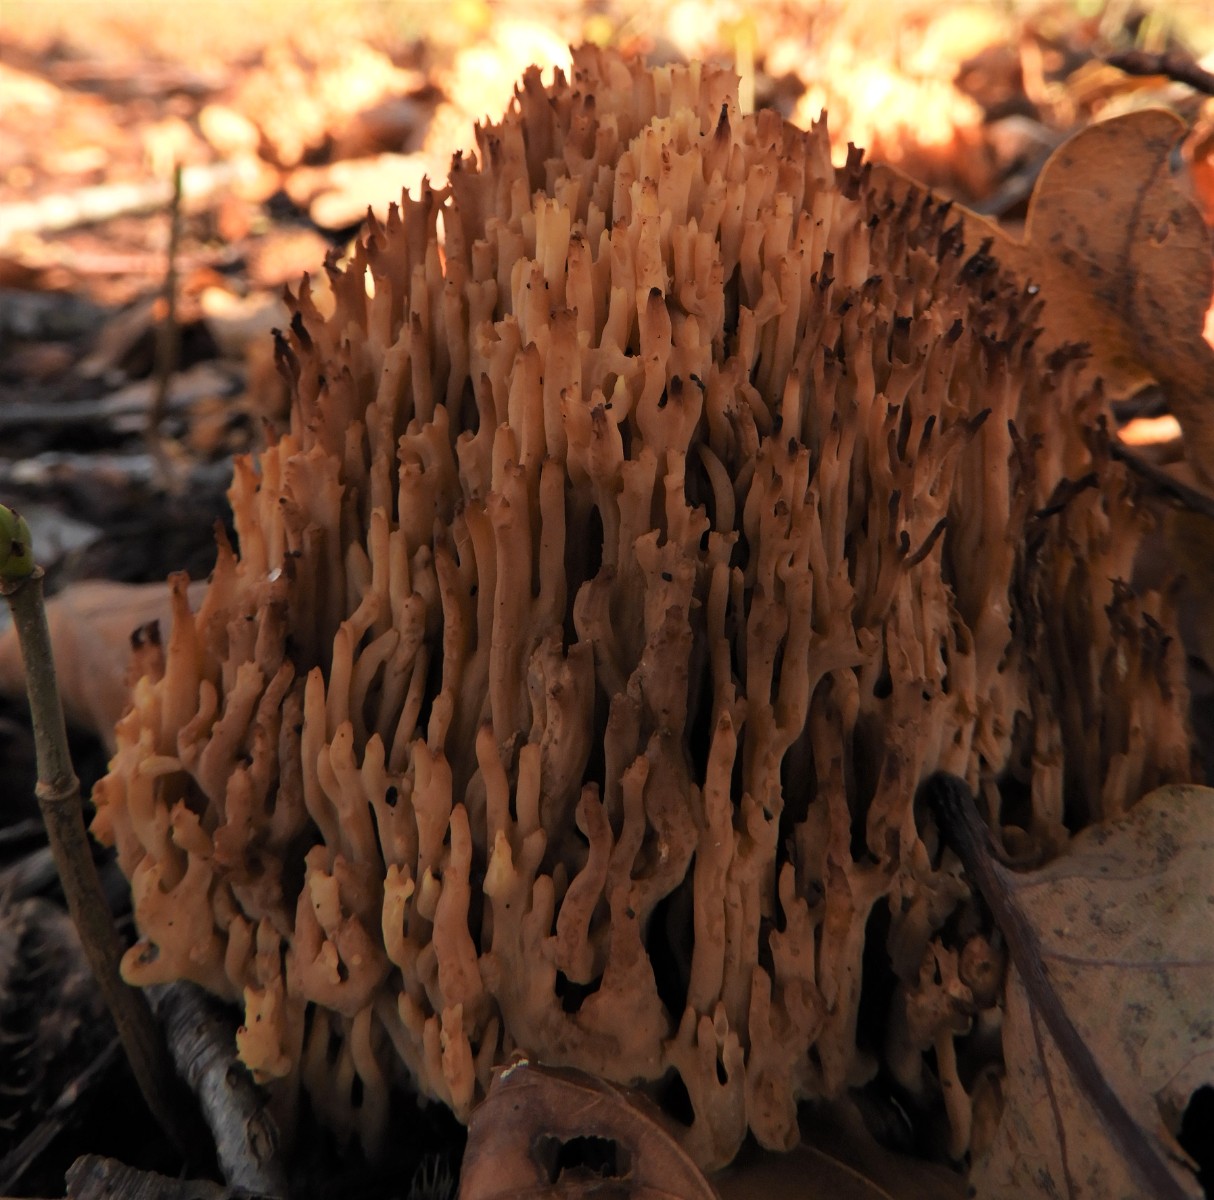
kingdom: Fungi
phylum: Basidiomycota
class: Agaricomycetes
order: Gomphales
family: Gomphaceae
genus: Ramaria
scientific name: Ramaria stricta
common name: rank koralsvamp
